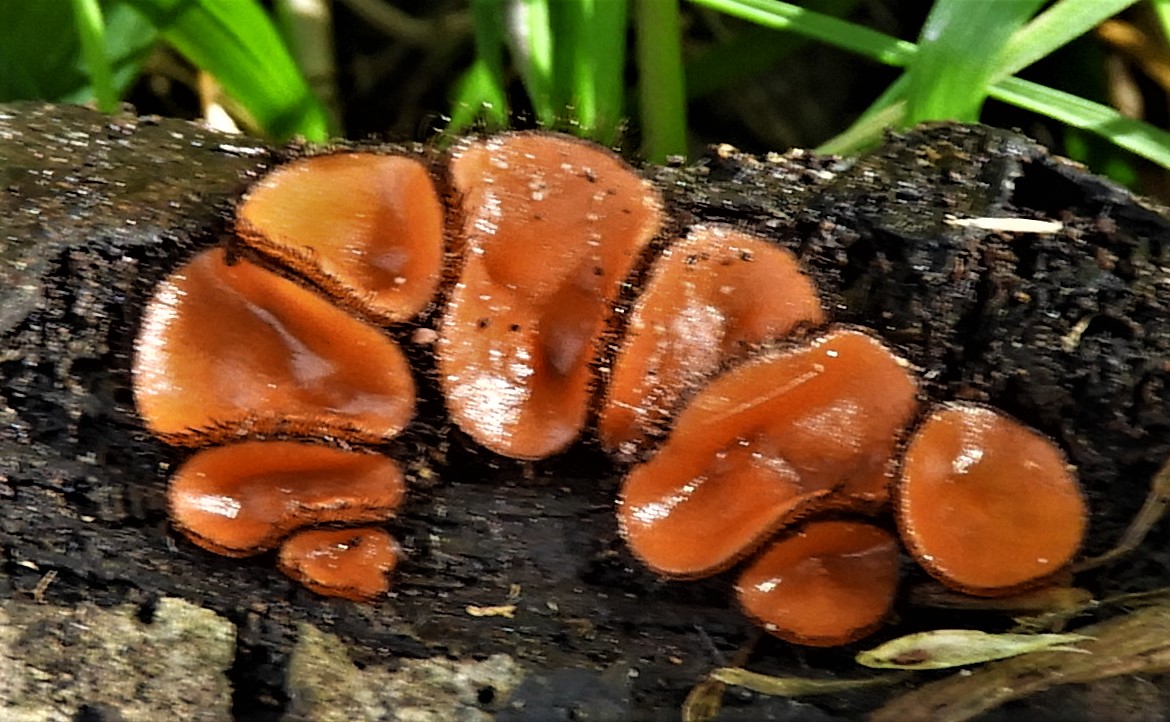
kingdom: Fungi
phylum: Ascomycota
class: Pezizomycetes
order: Pezizales
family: Pyronemataceae
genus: Scutellinia
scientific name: Scutellinia
